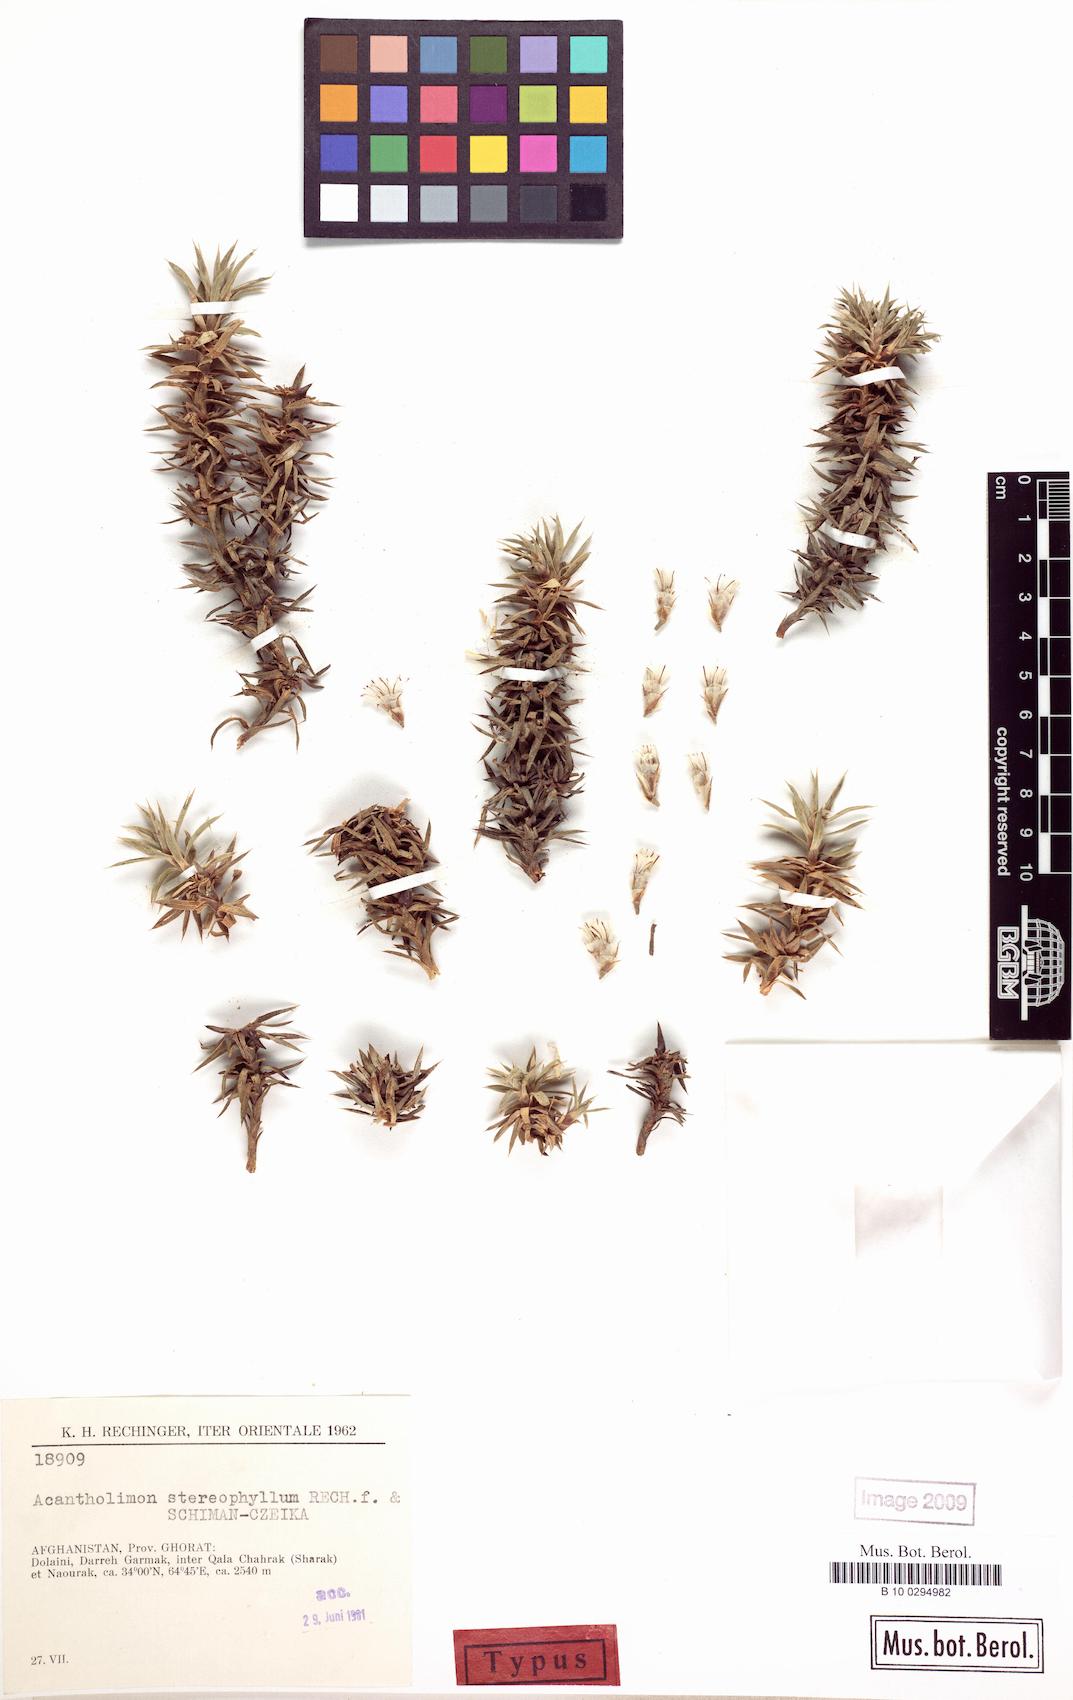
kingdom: Plantae
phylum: Tracheophyta
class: Magnoliopsida
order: Caryophyllales
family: Plumbaginaceae
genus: Acantholimon
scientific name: Acantholimon stereophyllum
